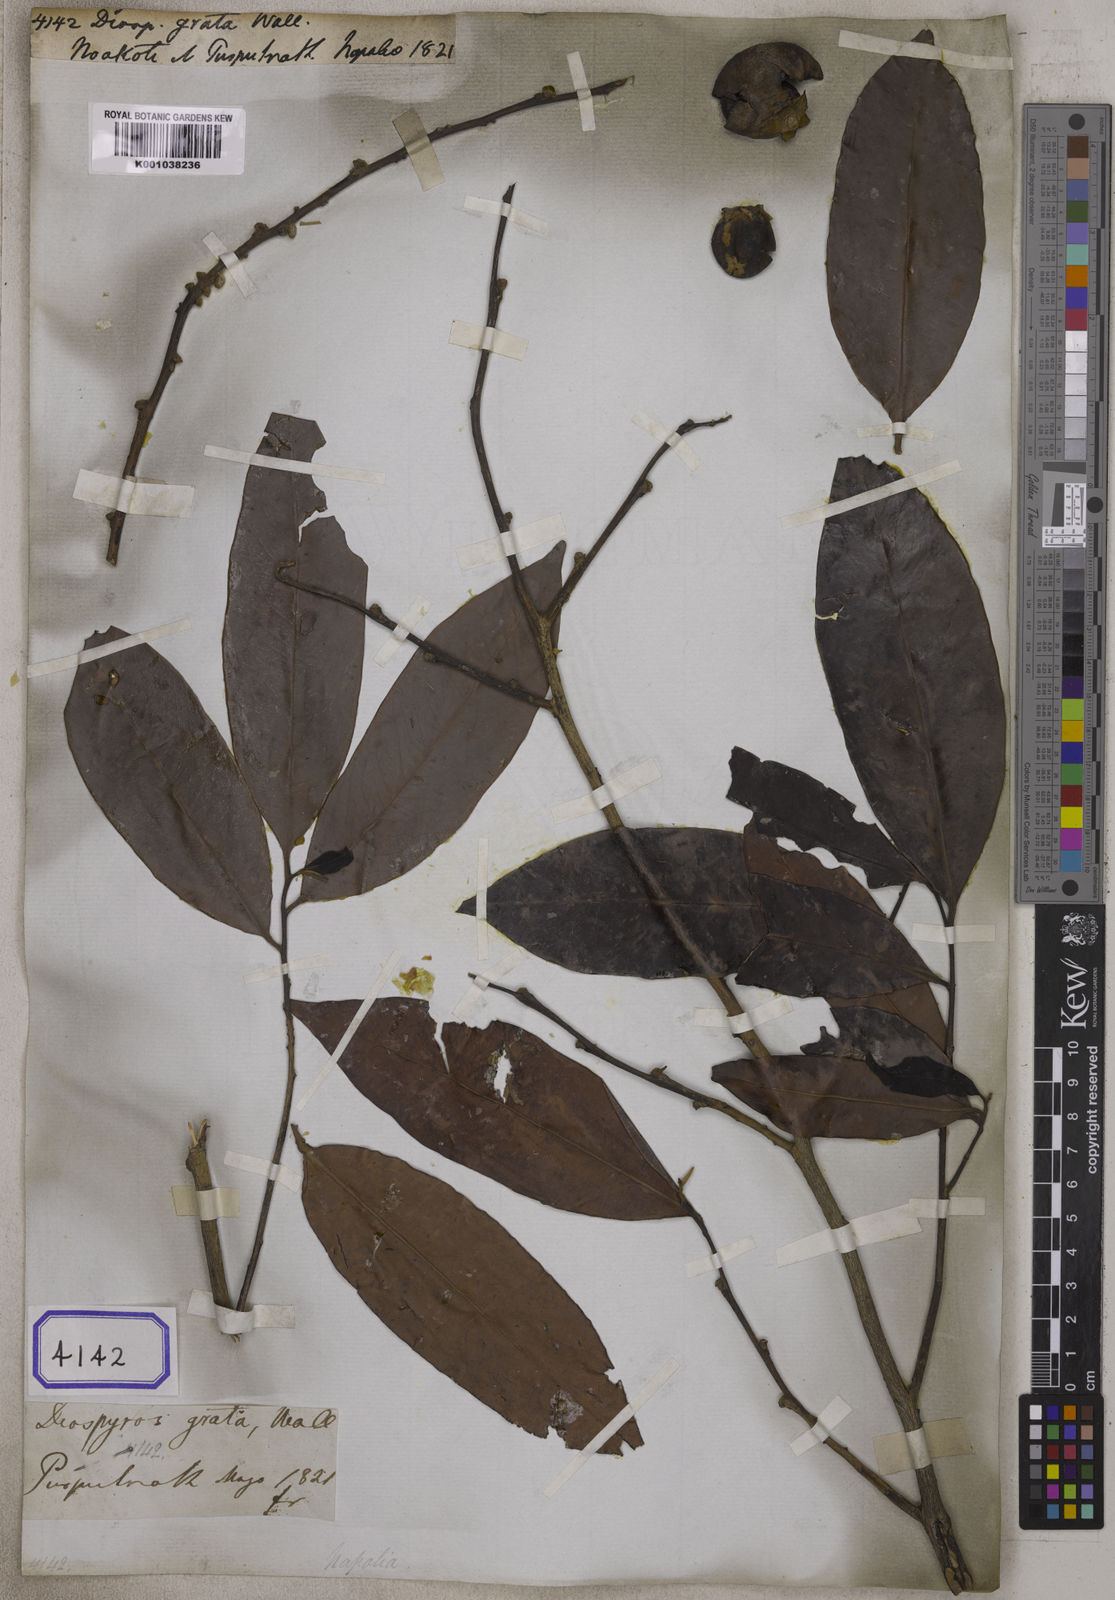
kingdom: Plantae
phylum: Tracheophyta
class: Magnoliopsida
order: Ericales
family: Ebenaceae
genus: Diospyros
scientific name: Diospyros
